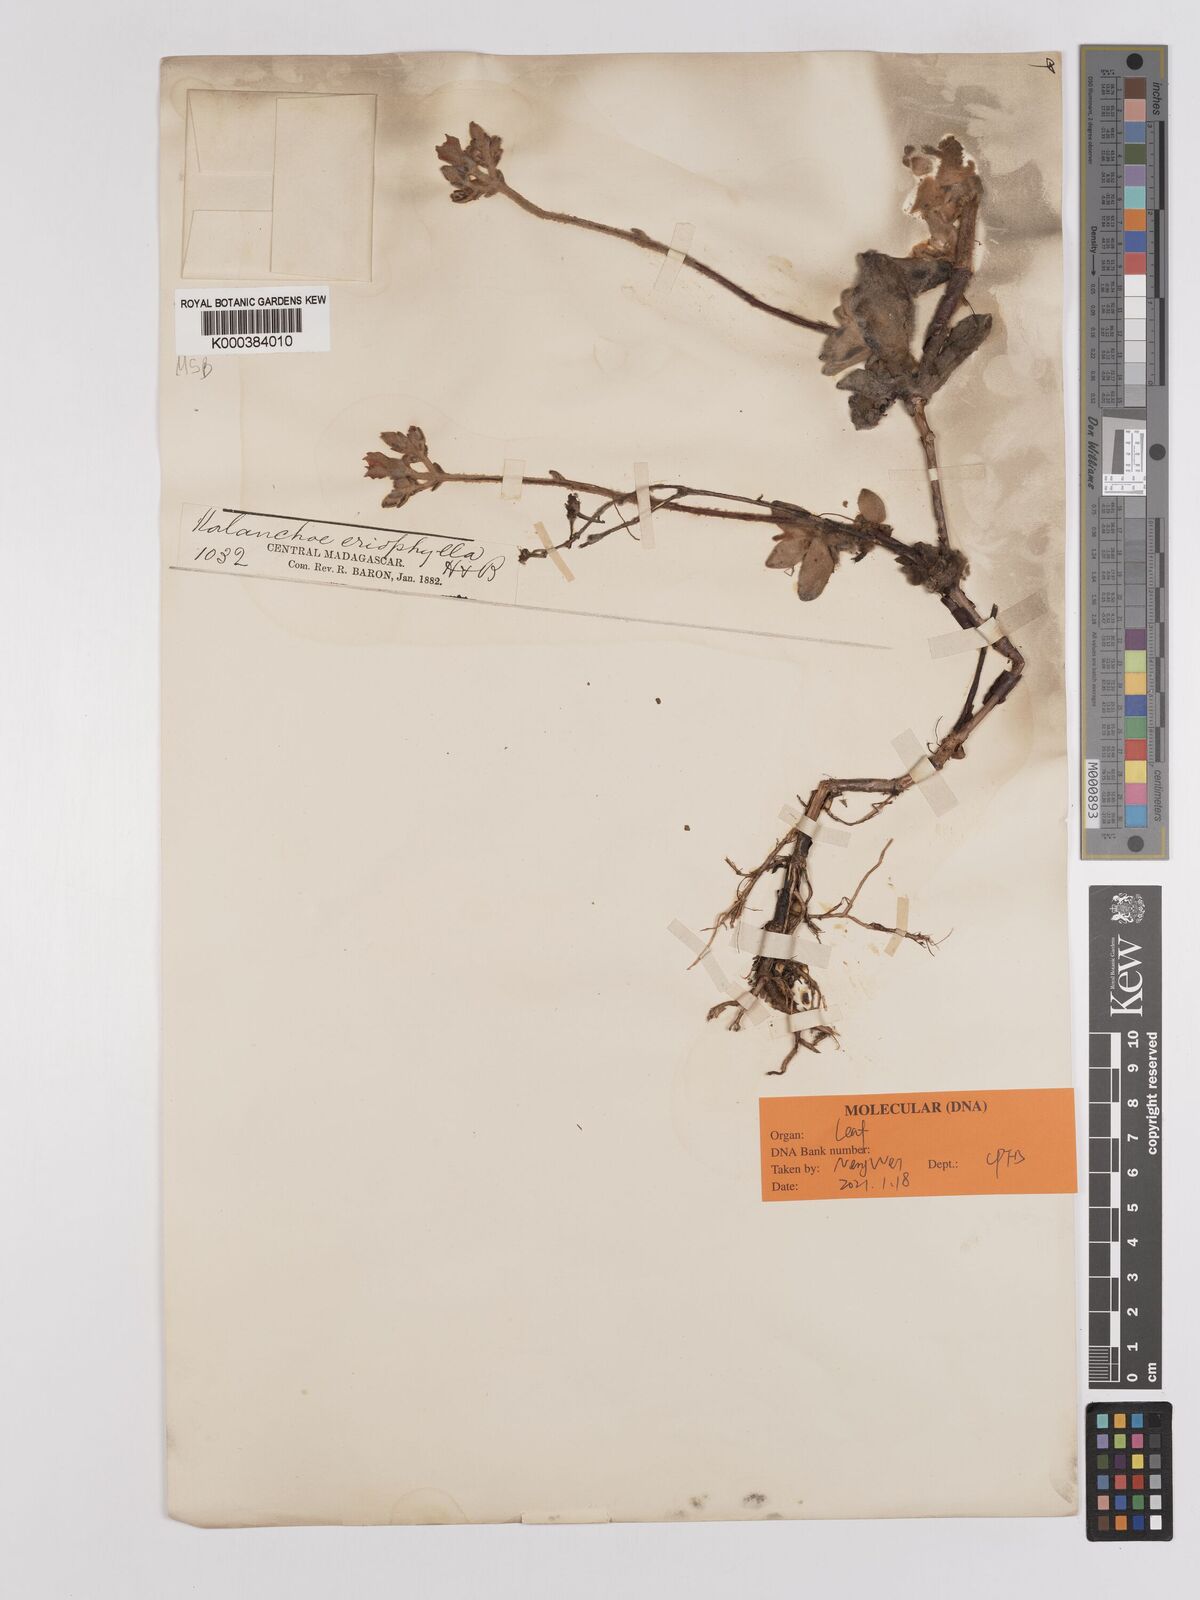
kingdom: Plantae
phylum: Tracheophyta
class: Magnoliopsida
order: Saxifragales
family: Crassulaceae
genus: Kalanchoe
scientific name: Kalanchoe eriophylla
